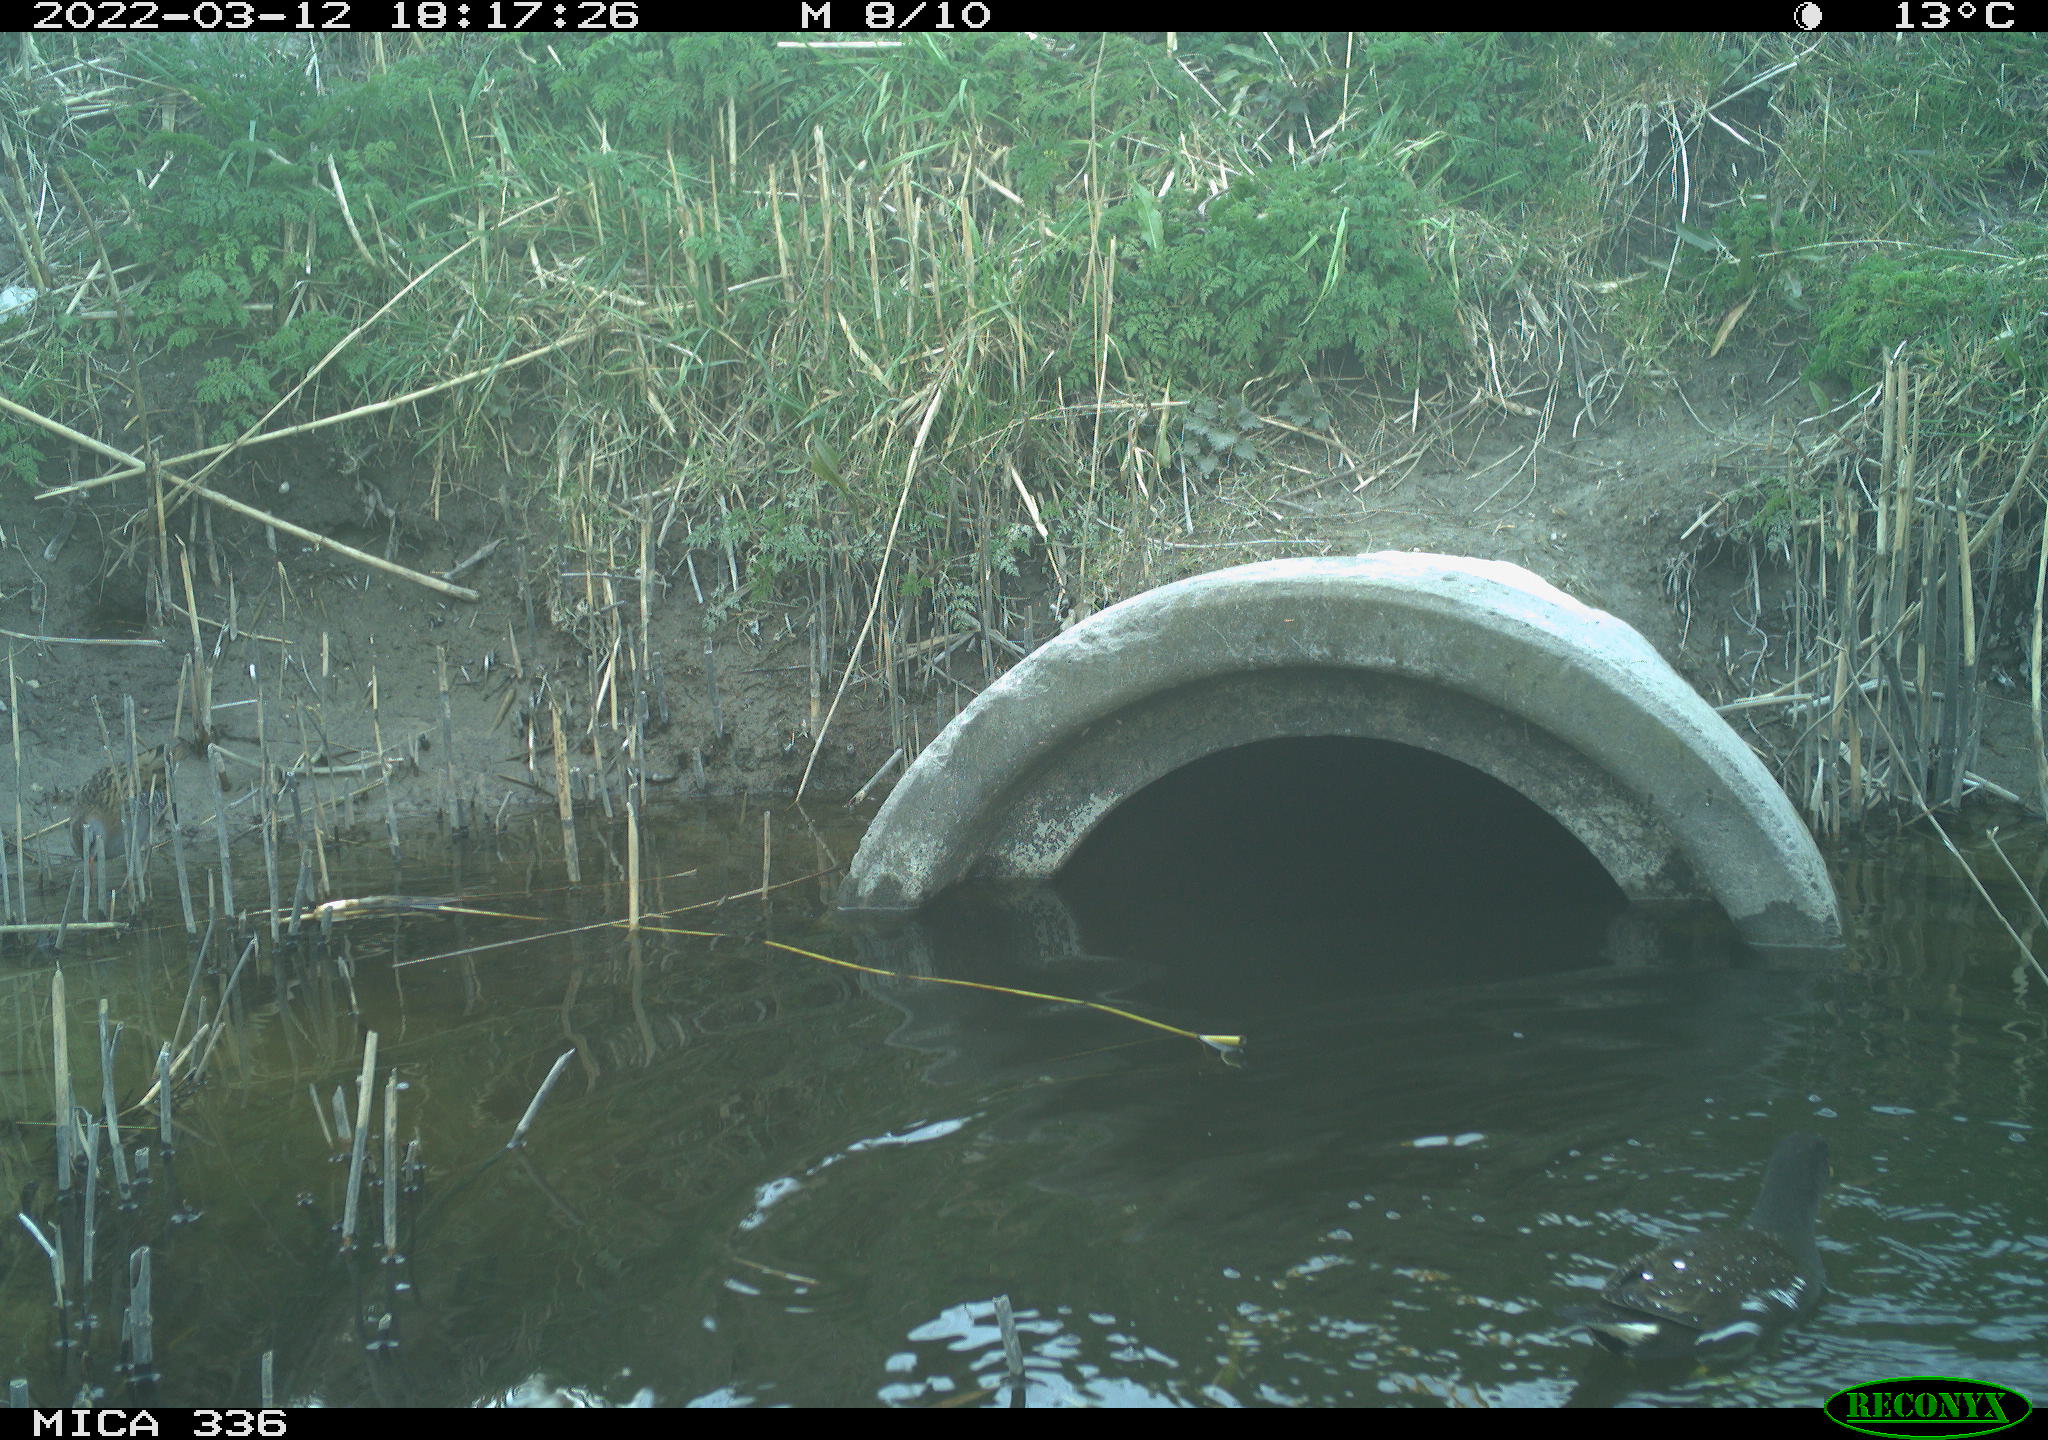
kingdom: Animalia
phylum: Chordata
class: Aves
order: Gruiformes
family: Rallidae
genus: Gallinula
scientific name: Gallinula chloropus
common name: Common moorhen
